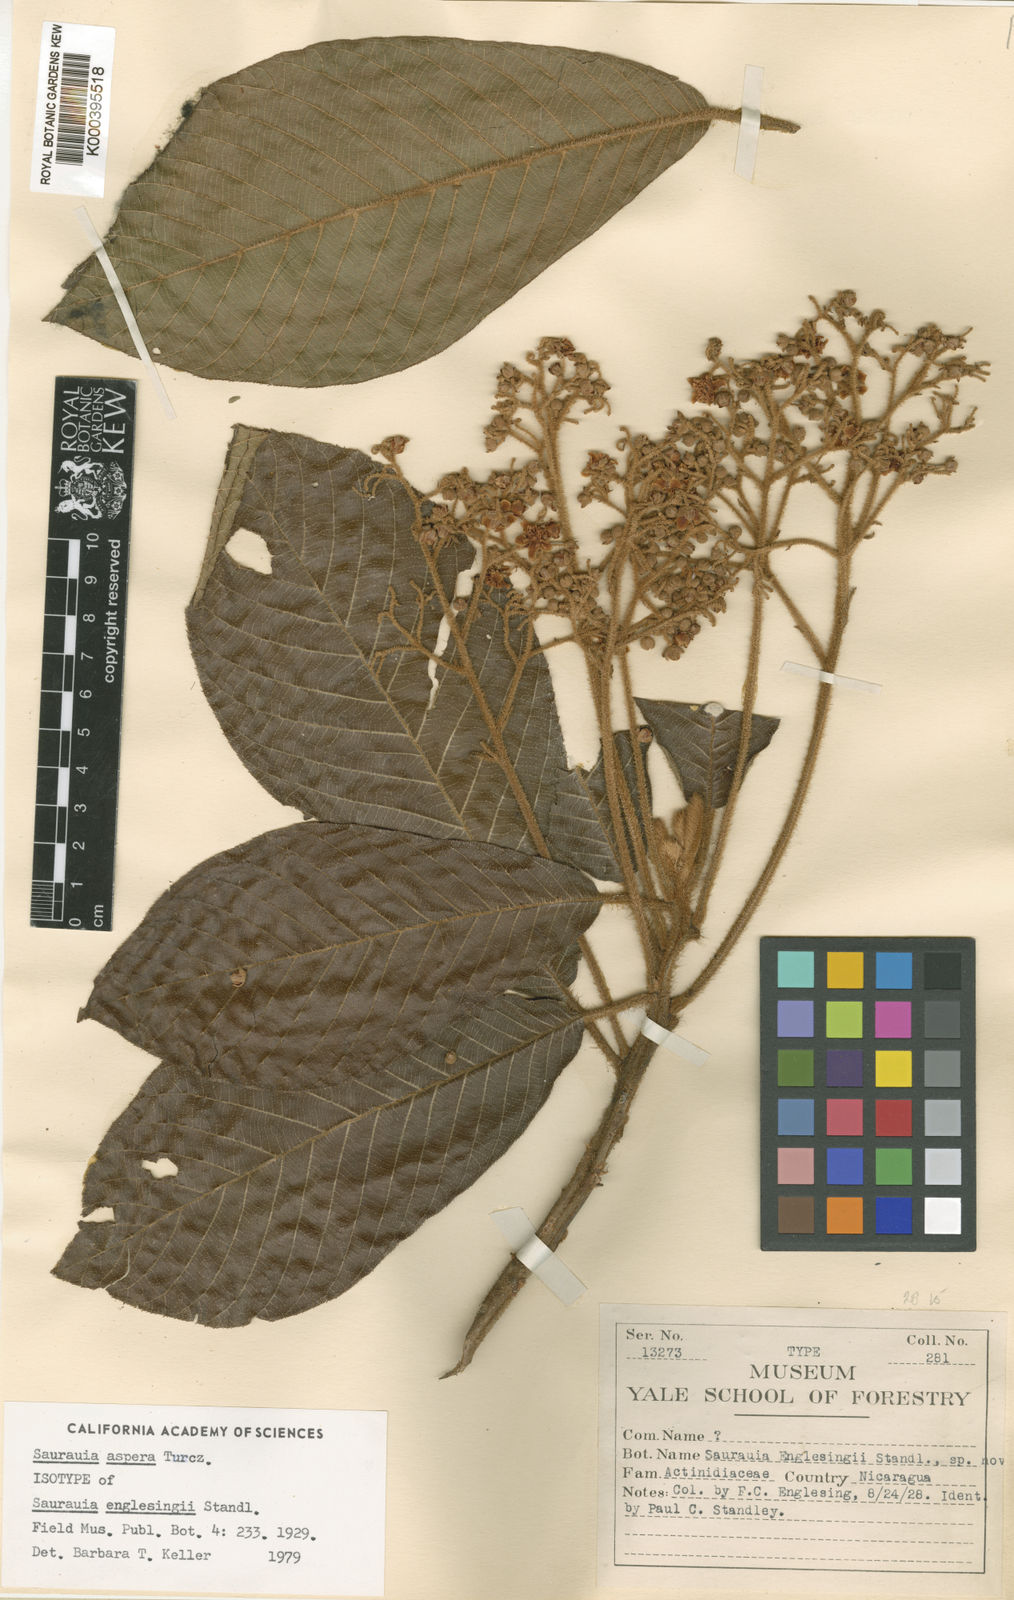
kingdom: Plantae
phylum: Tracheophyta
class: Magnoliopsida
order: Ericales
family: Actinidiaceae
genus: Saurauia
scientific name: Saurauia aspera
